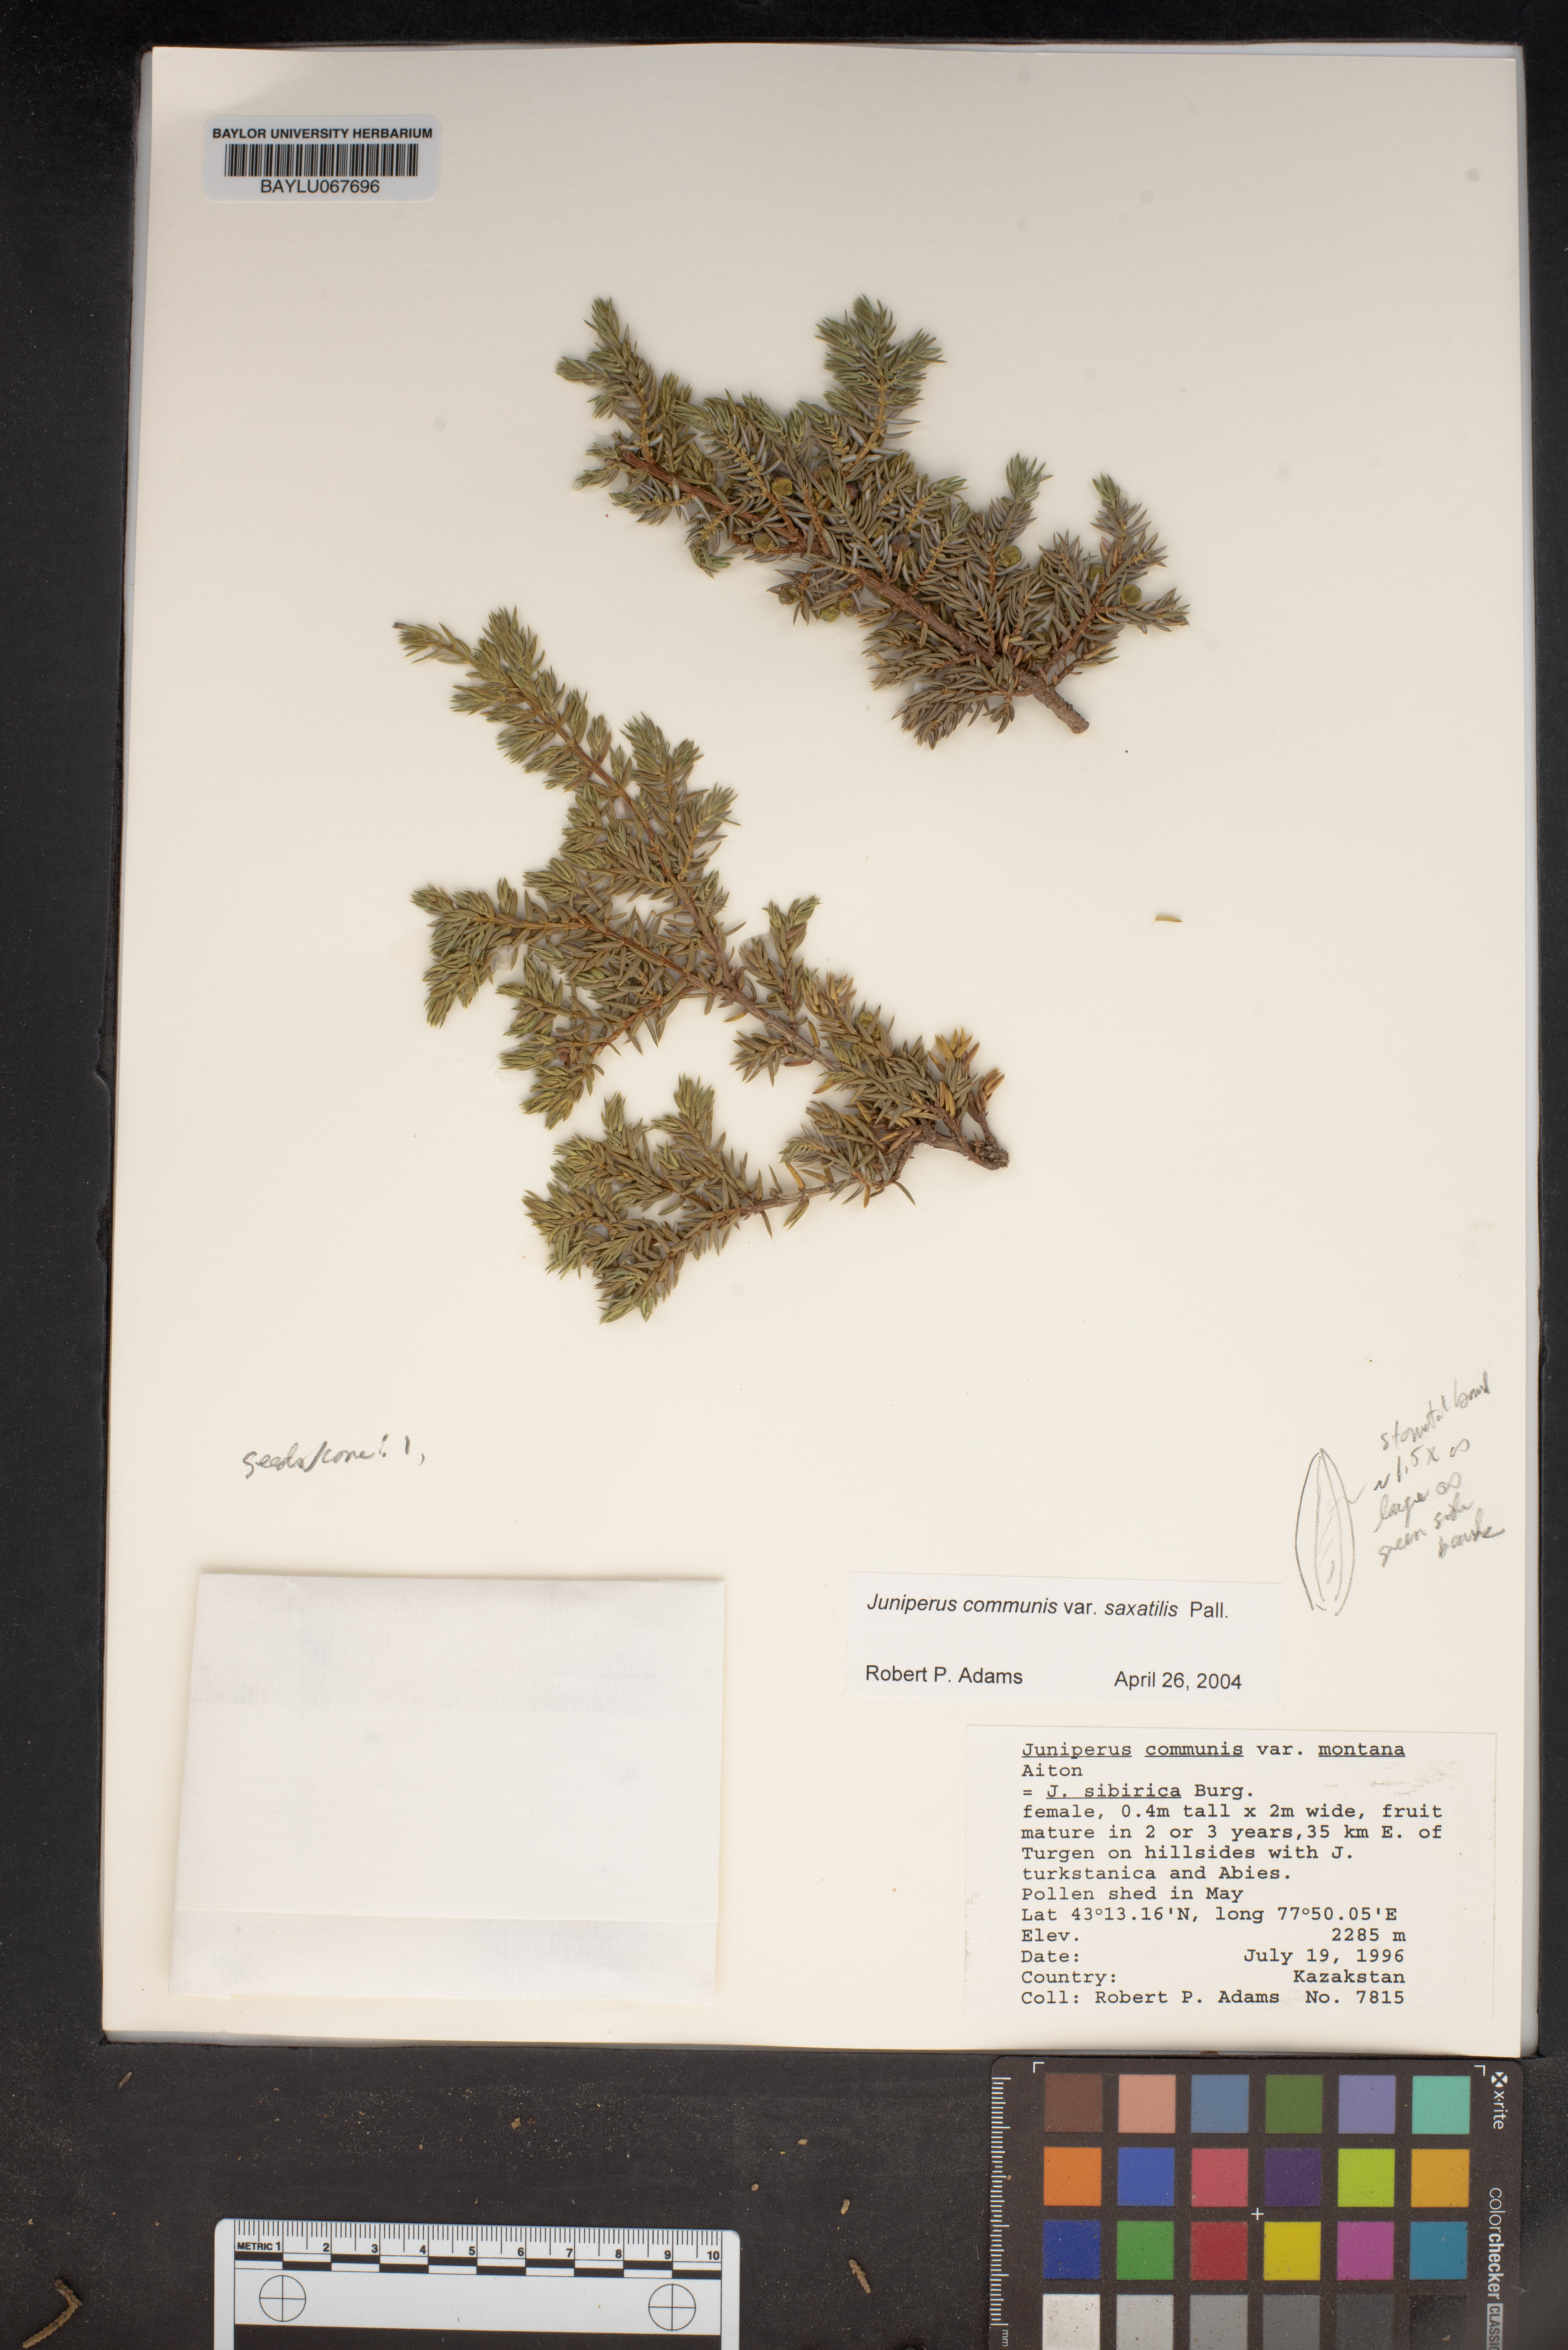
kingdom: Plantae
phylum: Tracheophyta
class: Pinopsida
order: Pinales
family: Cupressaceae
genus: Juniperus
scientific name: Juniperus communis
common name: Common juniper
